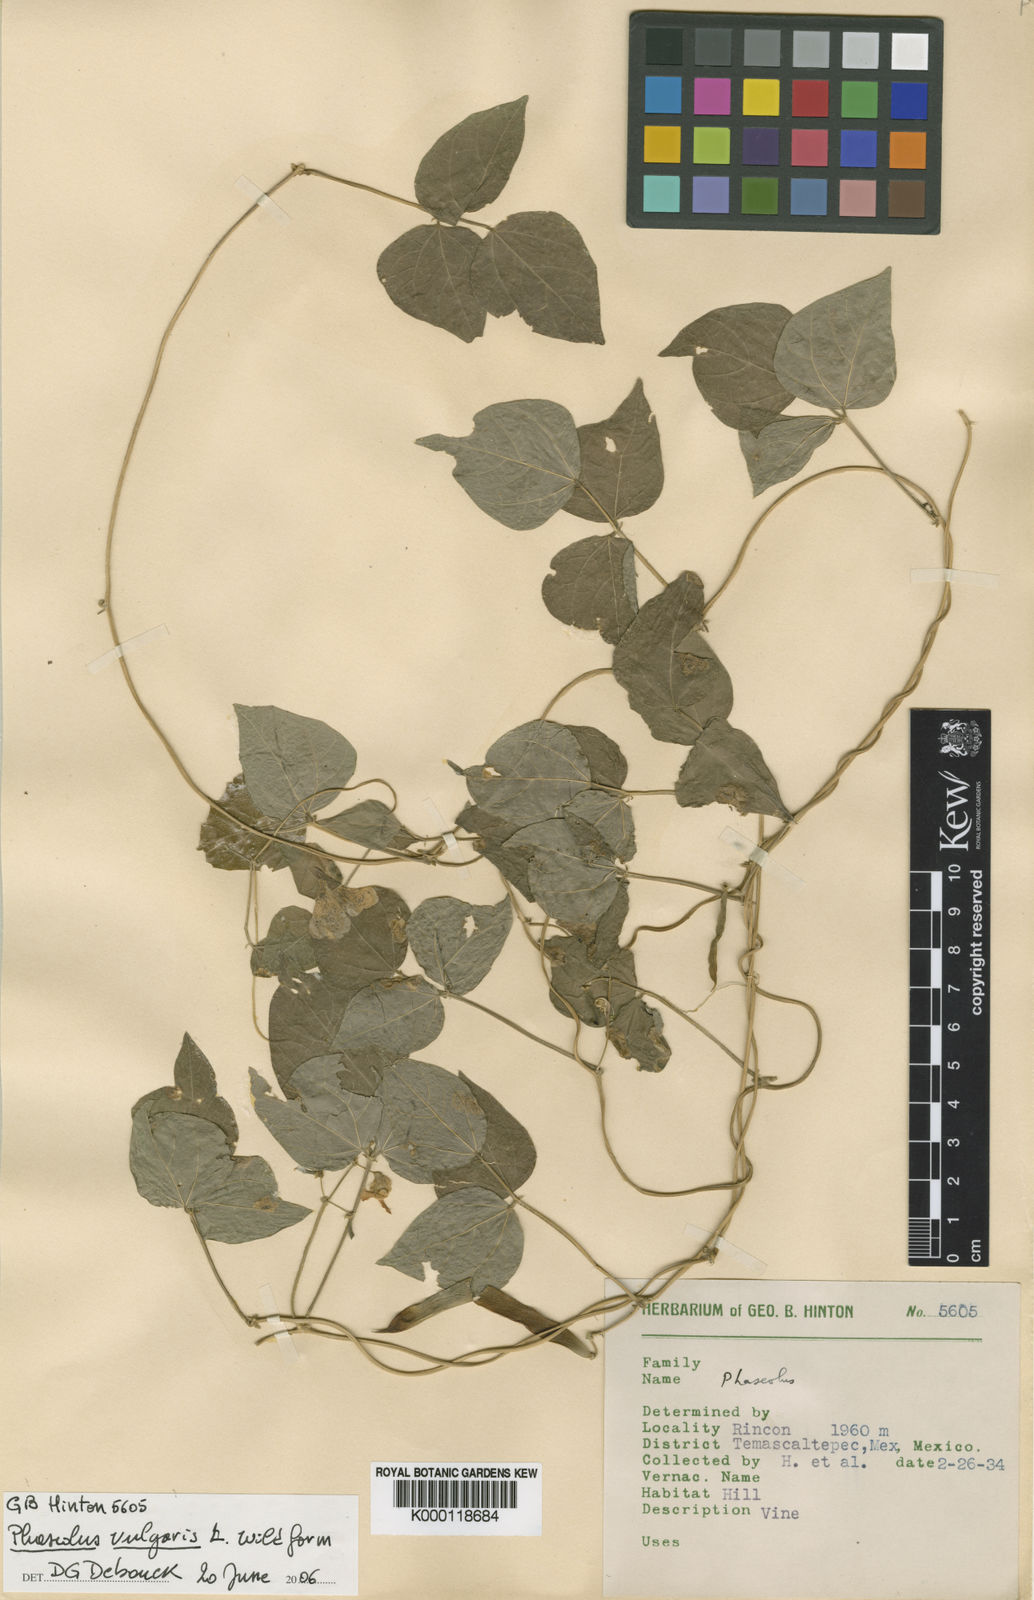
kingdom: Plantae
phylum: Tracheophyta
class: Magnoliopsida
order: Fabales
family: Fabaceae
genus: Phaseolus
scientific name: Phaseolus vulgaris
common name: Bean
